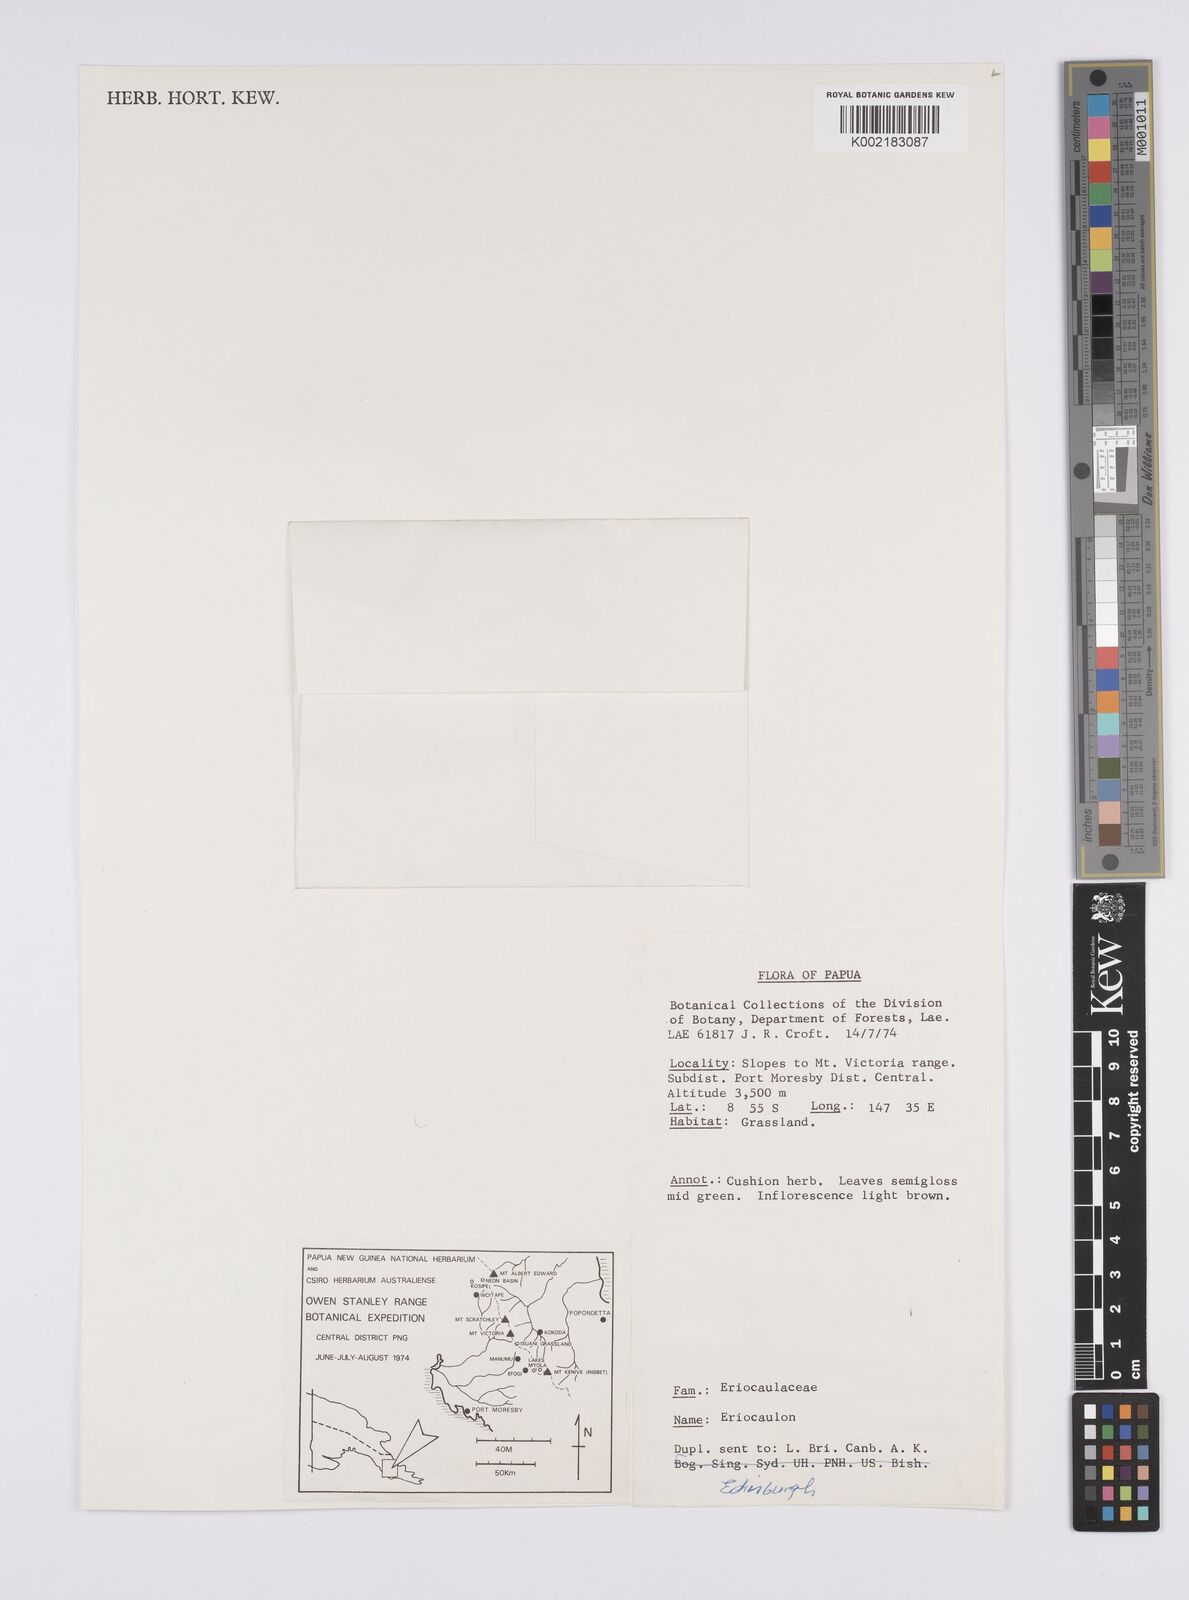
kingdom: Plantae
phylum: Tracheophyta
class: Liliopsida
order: Poales
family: Eriocaulaceae
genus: Eriocaulon
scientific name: Eriocaulon
